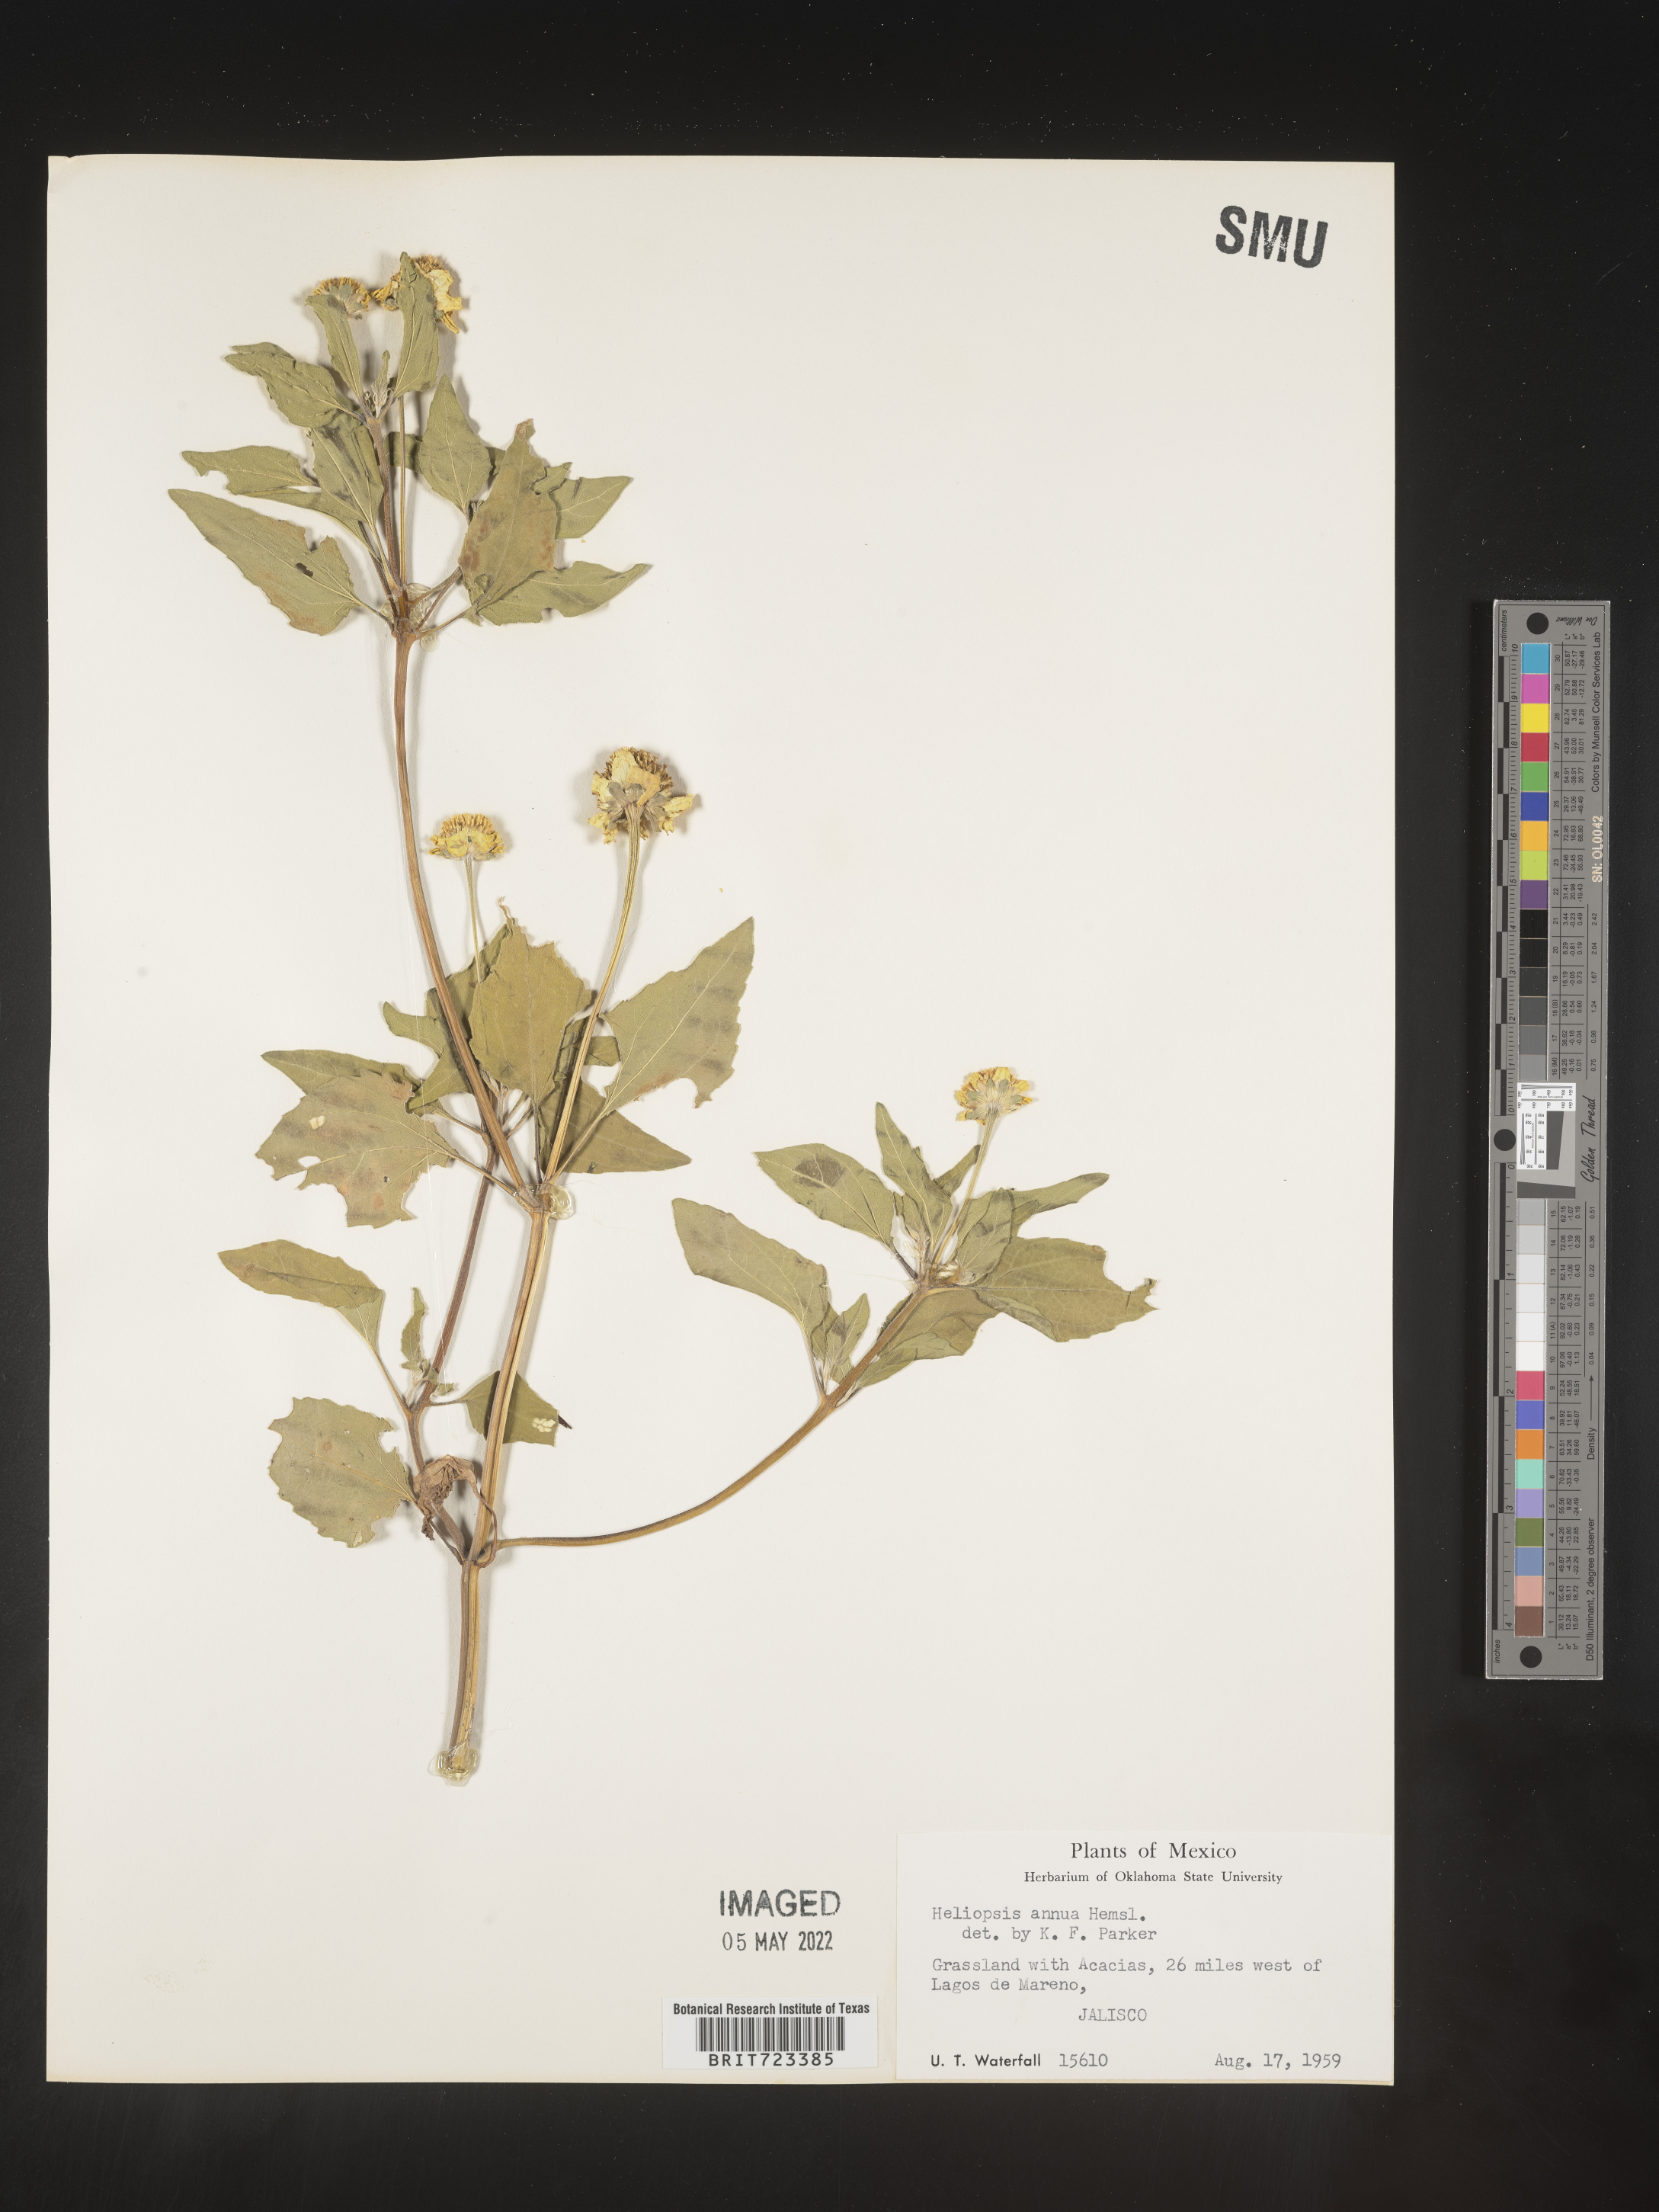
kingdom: Plantae
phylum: Tracheophyta
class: Magnoliopsida
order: Asterales
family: Asteraceae
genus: Heliopsis
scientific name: Heliopsis
